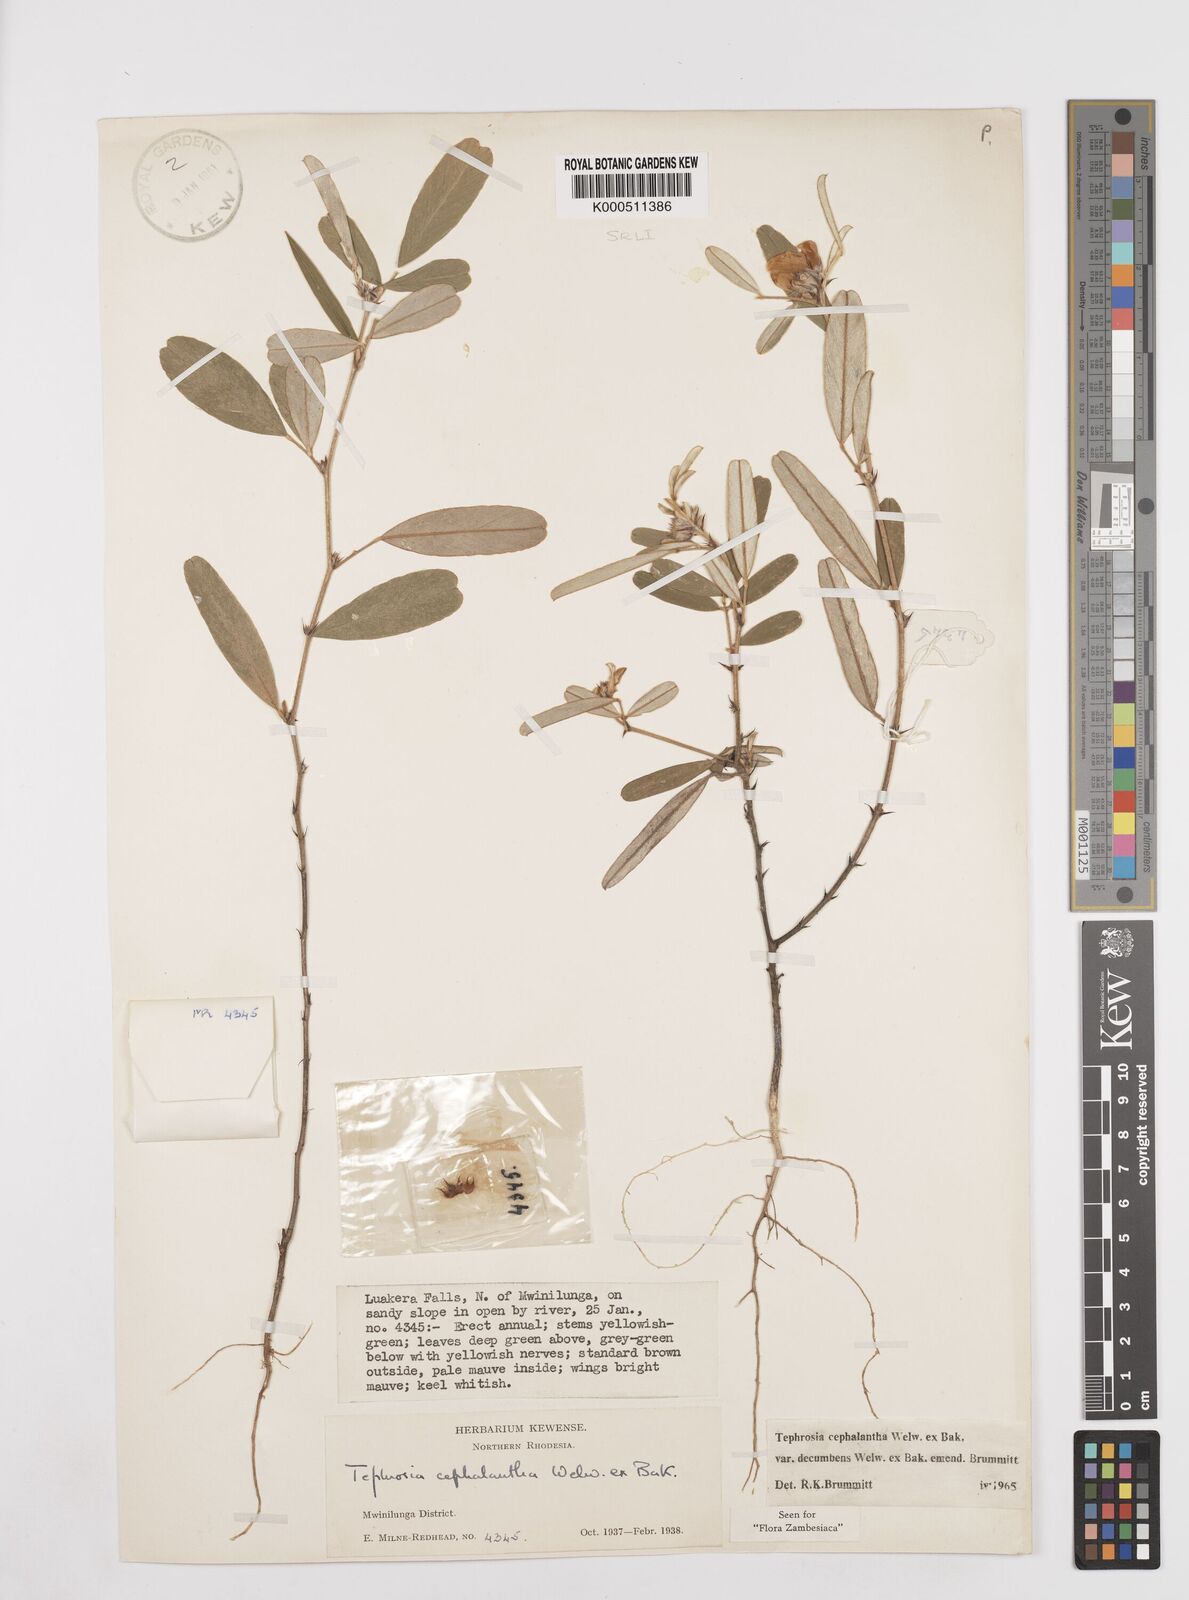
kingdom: Plantae
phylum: Tracheophyta
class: Magnoliopsida
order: Fabales
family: Fabaceae
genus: Tephrosia
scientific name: Tephrosia
